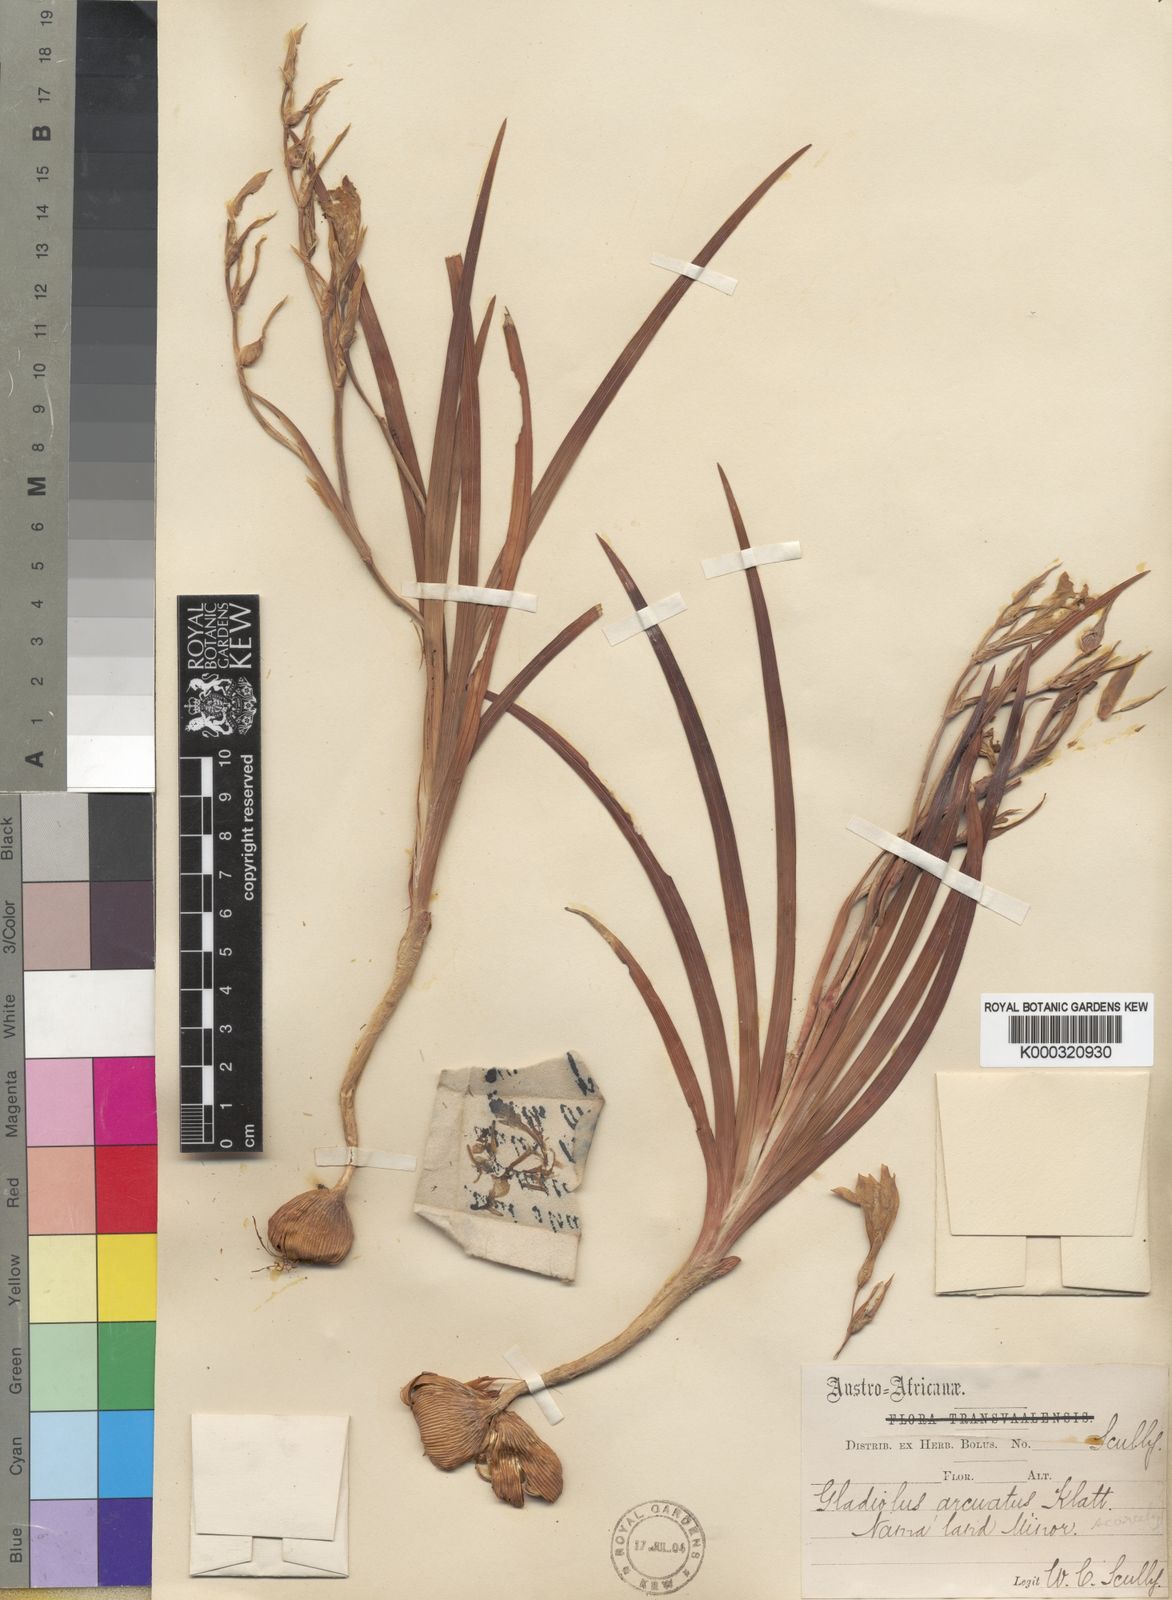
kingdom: Plantae
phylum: Tracheophyta
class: Liliopsida
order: Asparagales
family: Iridaceae
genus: Gladiolus
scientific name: Gladiolus scullyi
